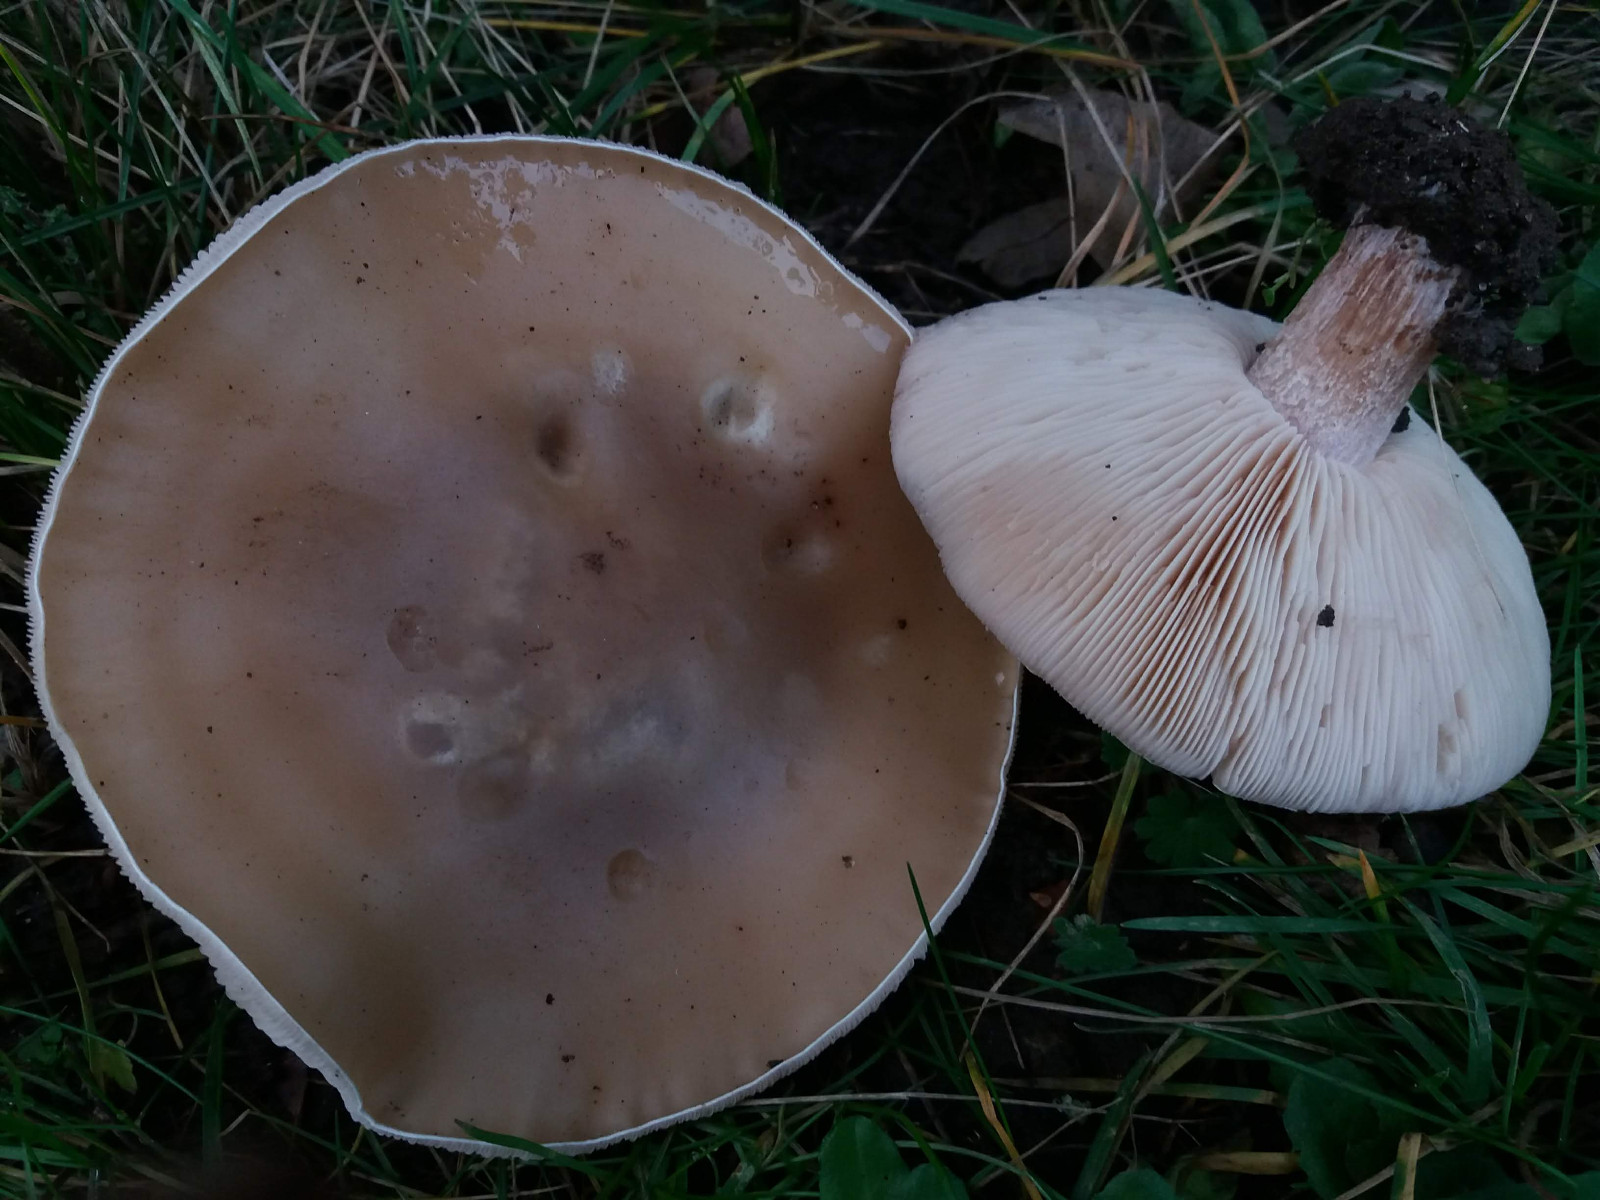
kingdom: Fungi
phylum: Basidiomycota
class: Agaricomycetes
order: Agaricales
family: Tricholomataceae
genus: Lepista
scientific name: Lepista personata
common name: bleg hekseringshat
